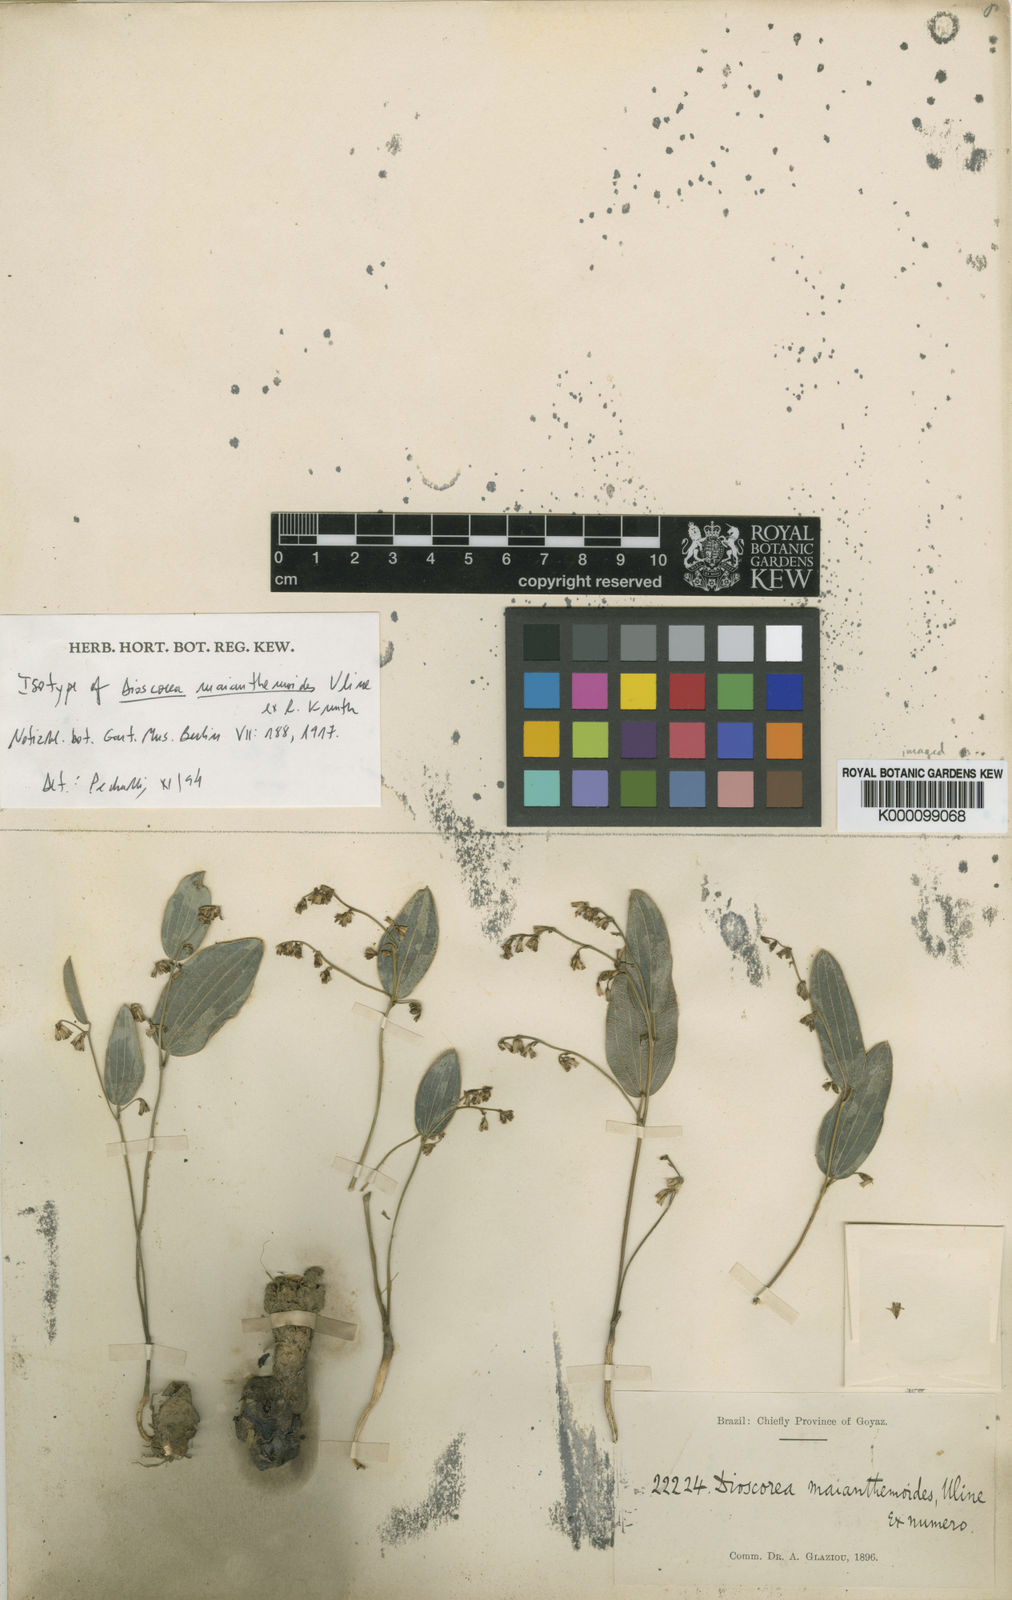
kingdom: Plantae
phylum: Tracheophyta
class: Liliopsida
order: Dioscoreales
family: Dioscoreaceae
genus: Dioscorea
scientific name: Dioscorea maianthemoides
